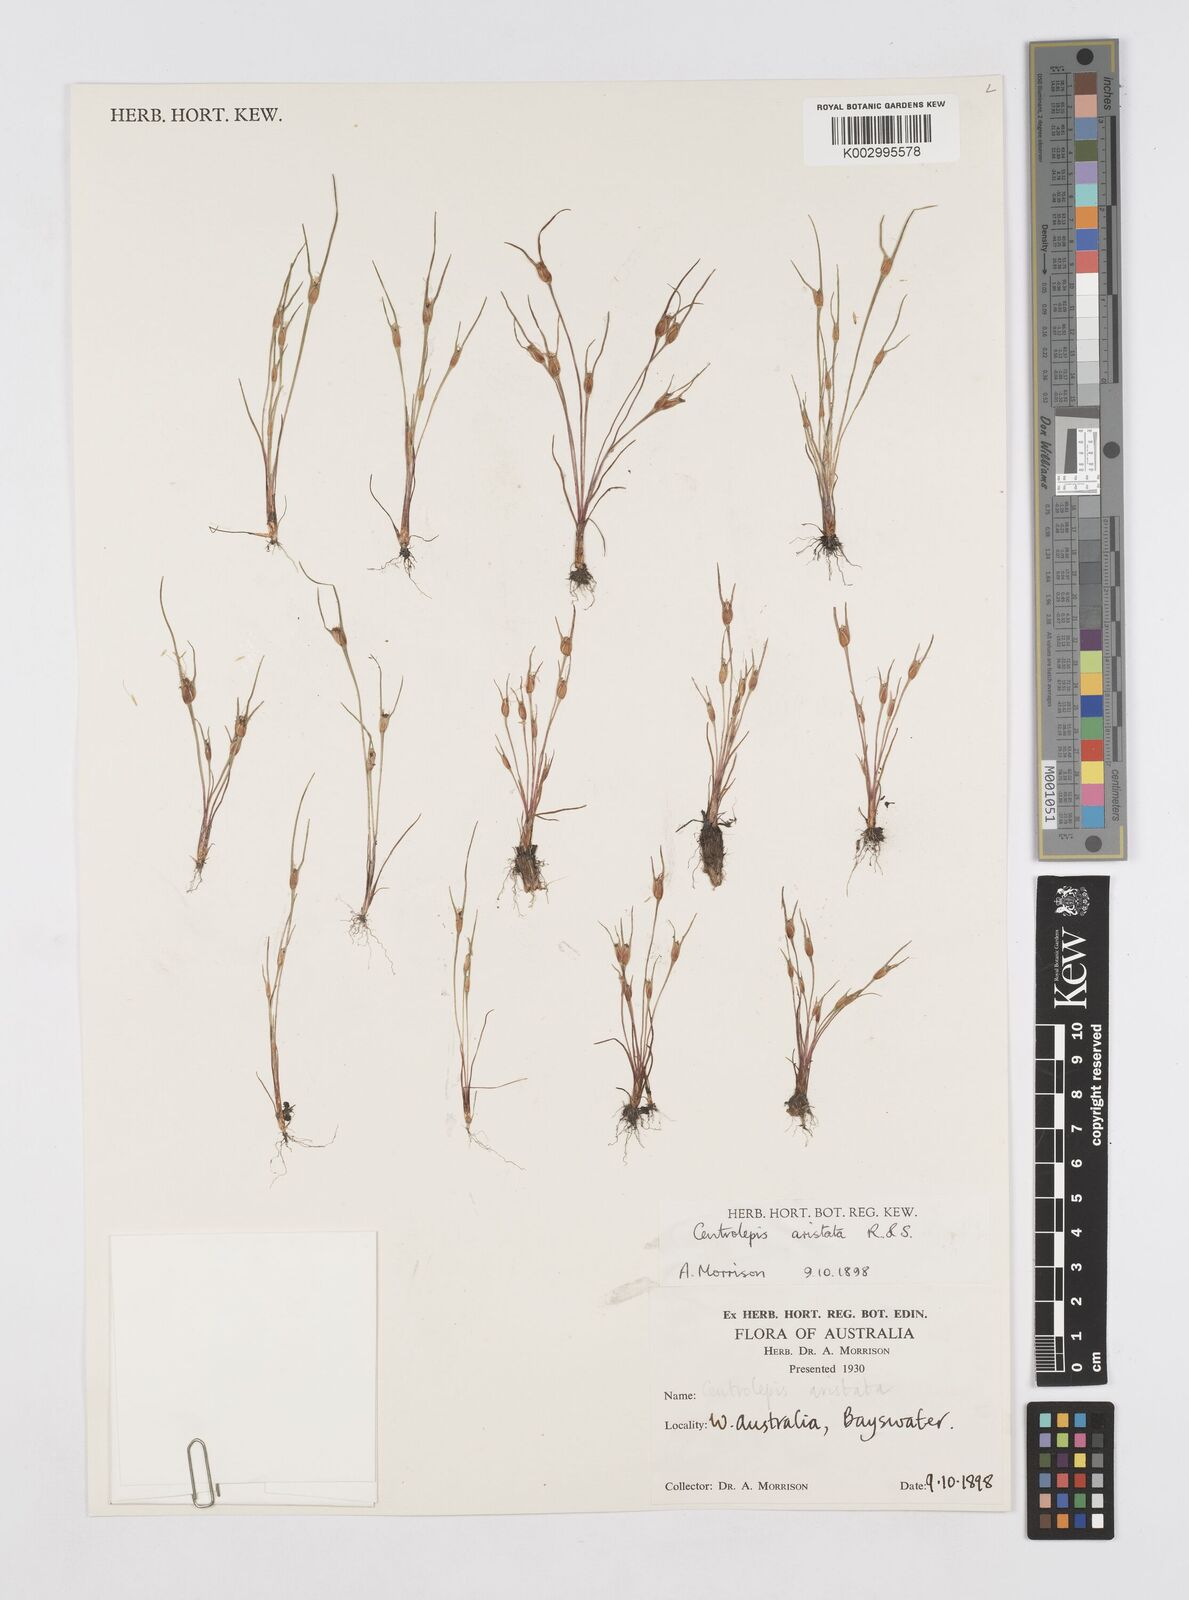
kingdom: Plantae
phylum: Tracheophyta
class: Liliopsida
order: Poales
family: Restionaceae
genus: Centrolepis
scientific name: Centrolepis aristata
